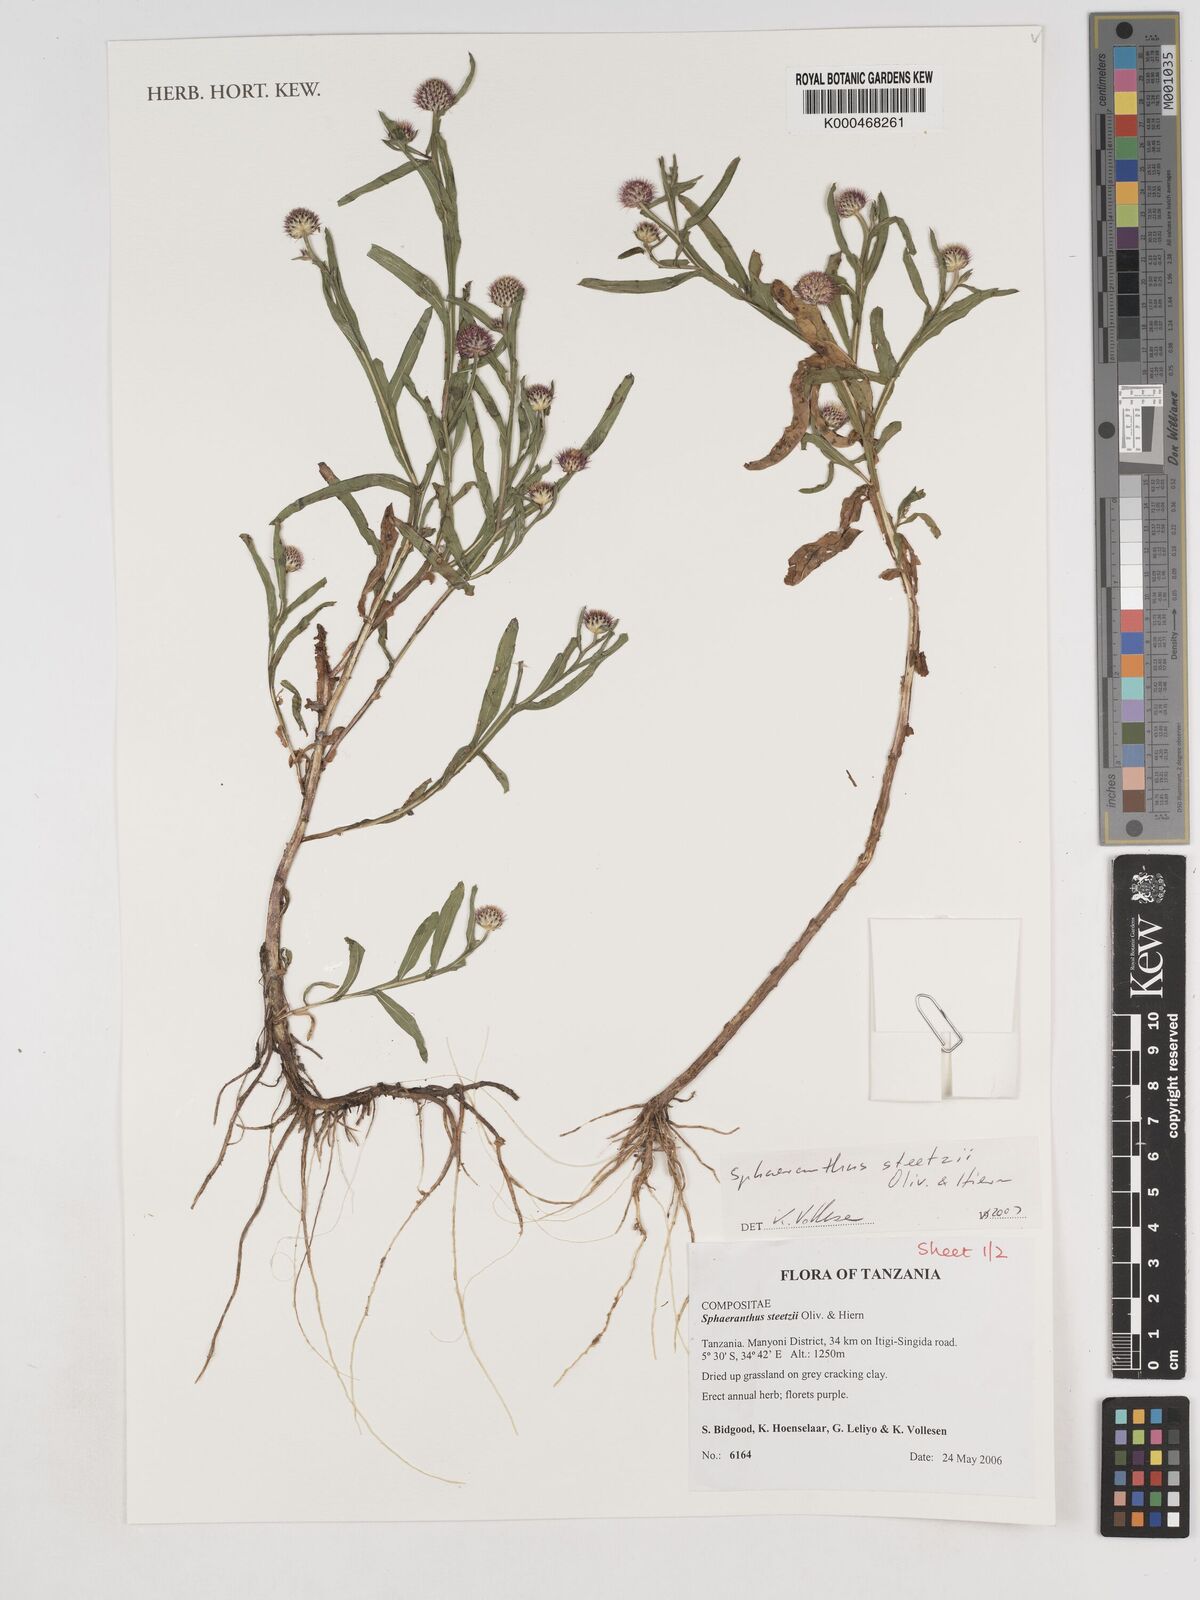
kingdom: Plantae
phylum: Tracheophyta
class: Magnoliopsida
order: Asterales
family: Asteraceae
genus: Sphaeranthus
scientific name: Sphaeranthus steetzii
